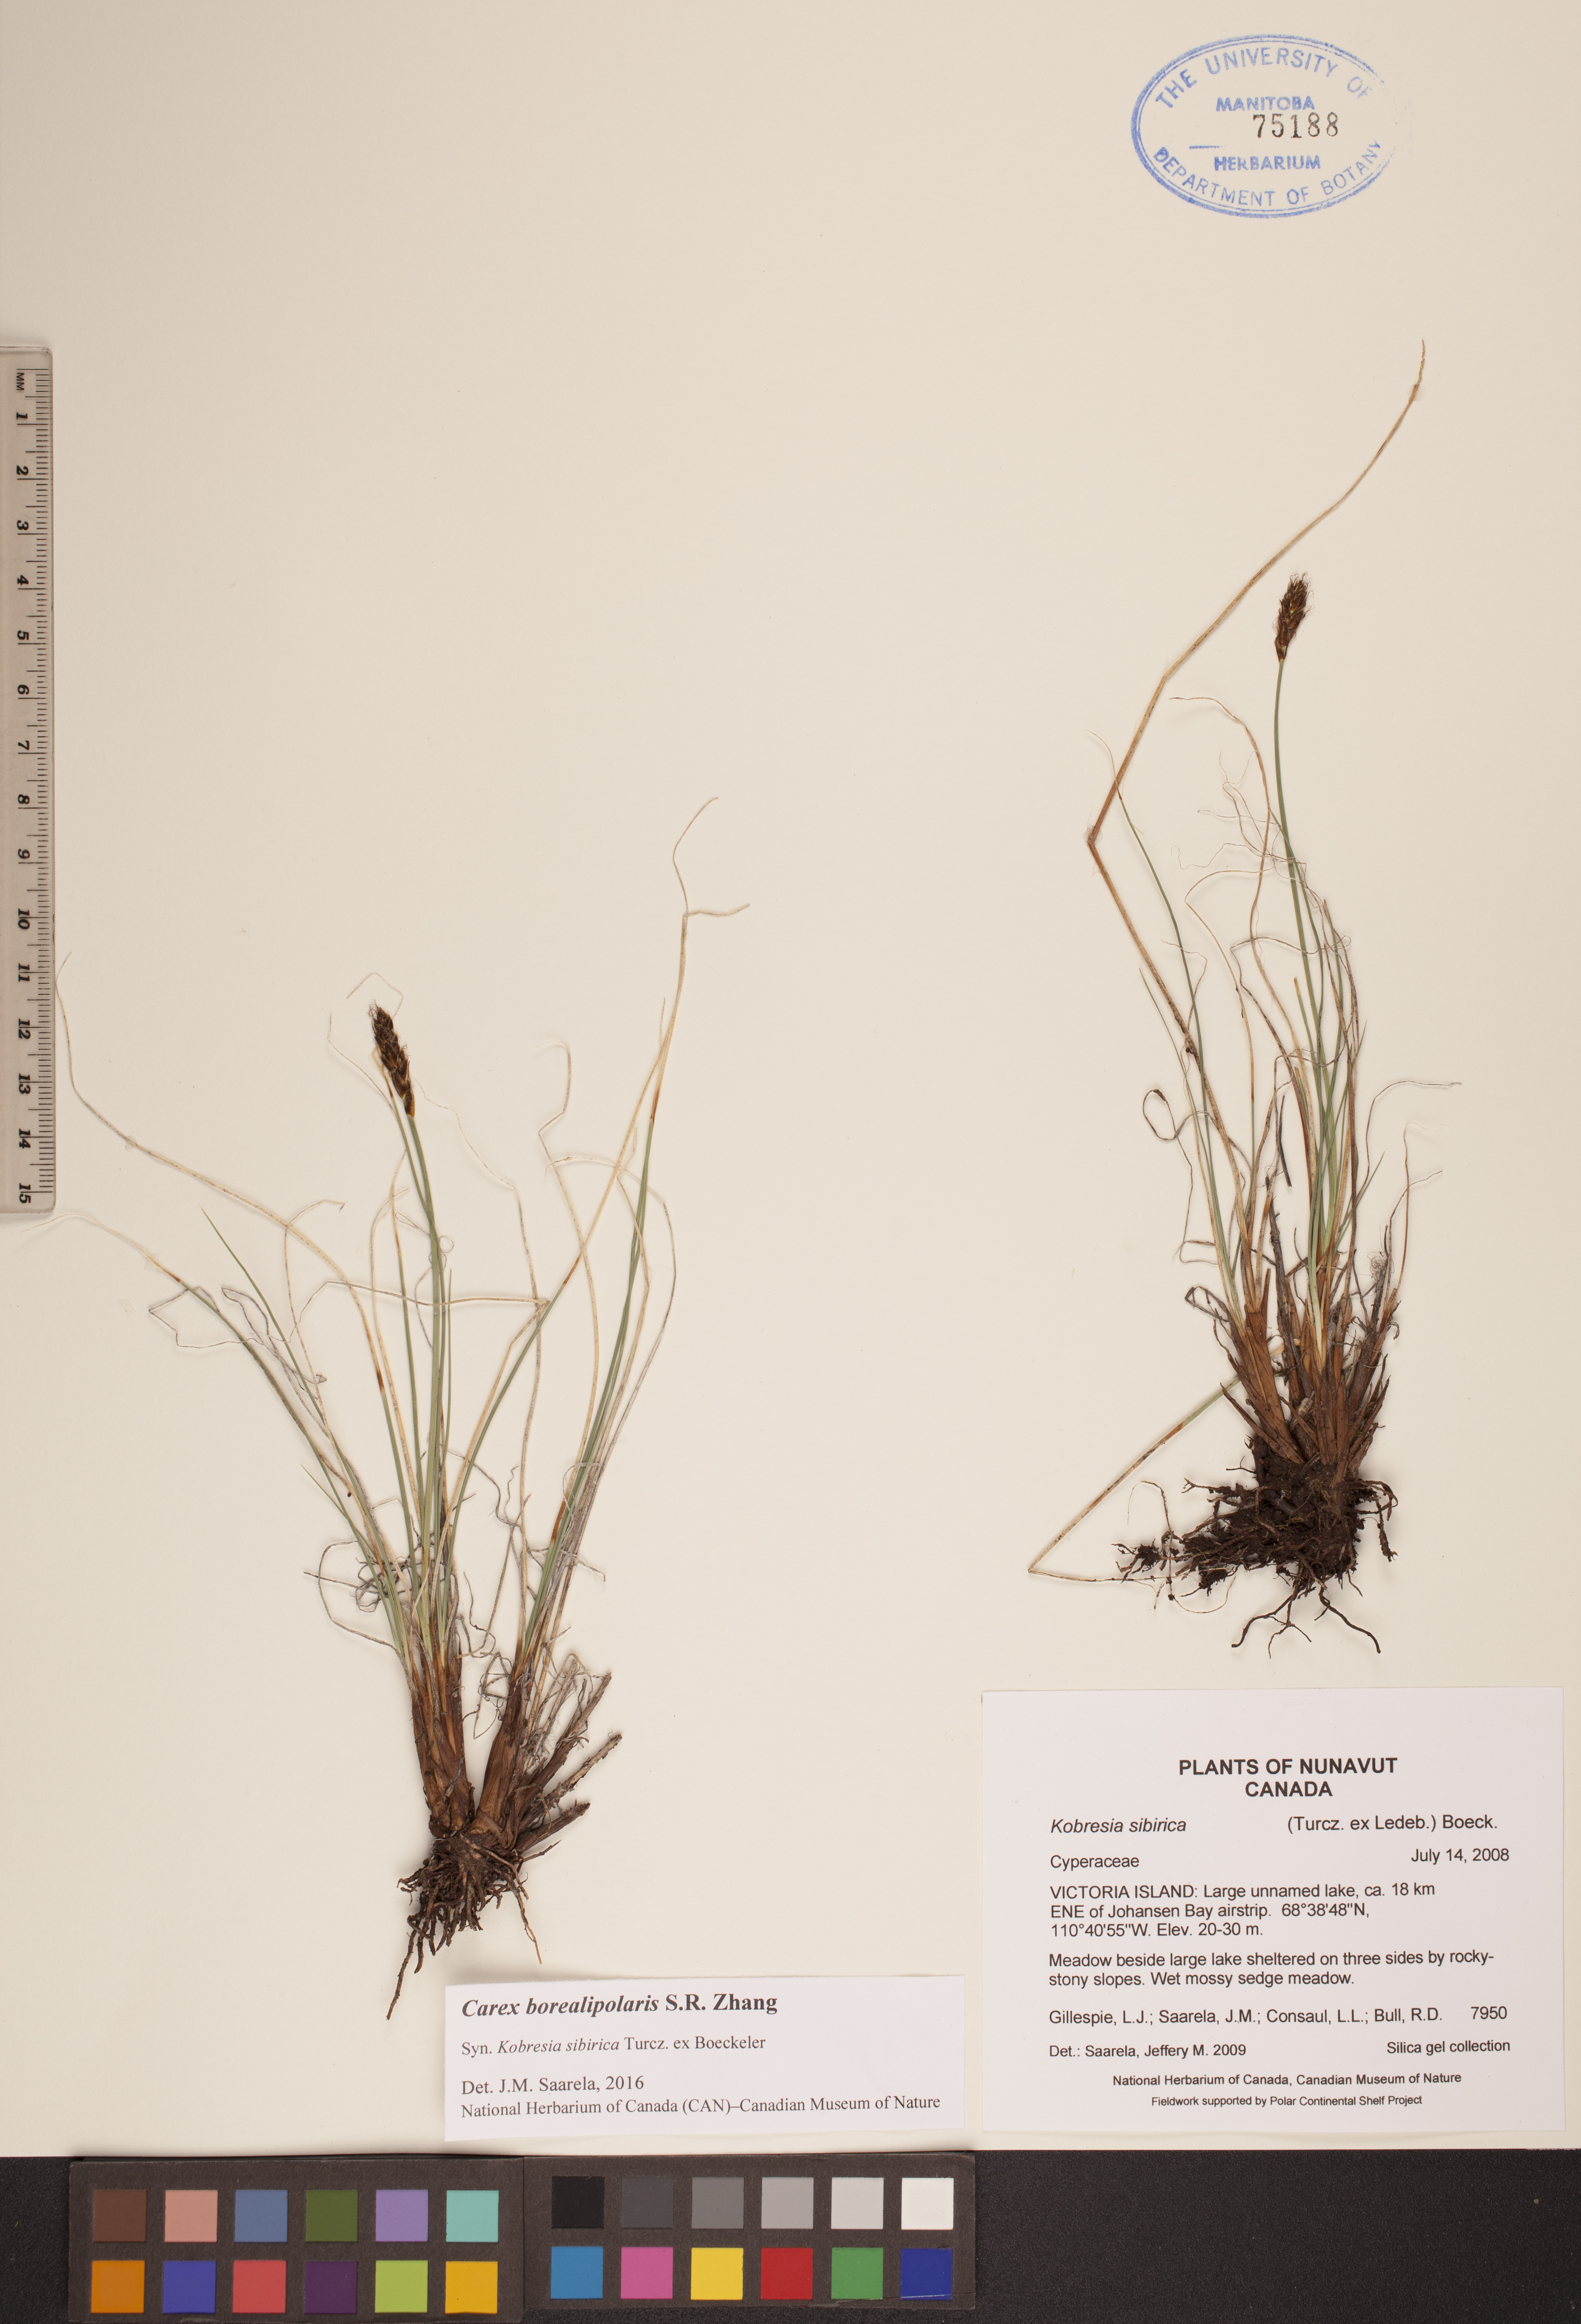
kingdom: Plantae
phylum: Tracheophyta
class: Liliopsida
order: Poales
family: Cyperaceae
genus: Carex
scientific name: Carex borealipolaris
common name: Siberian bog sedge
